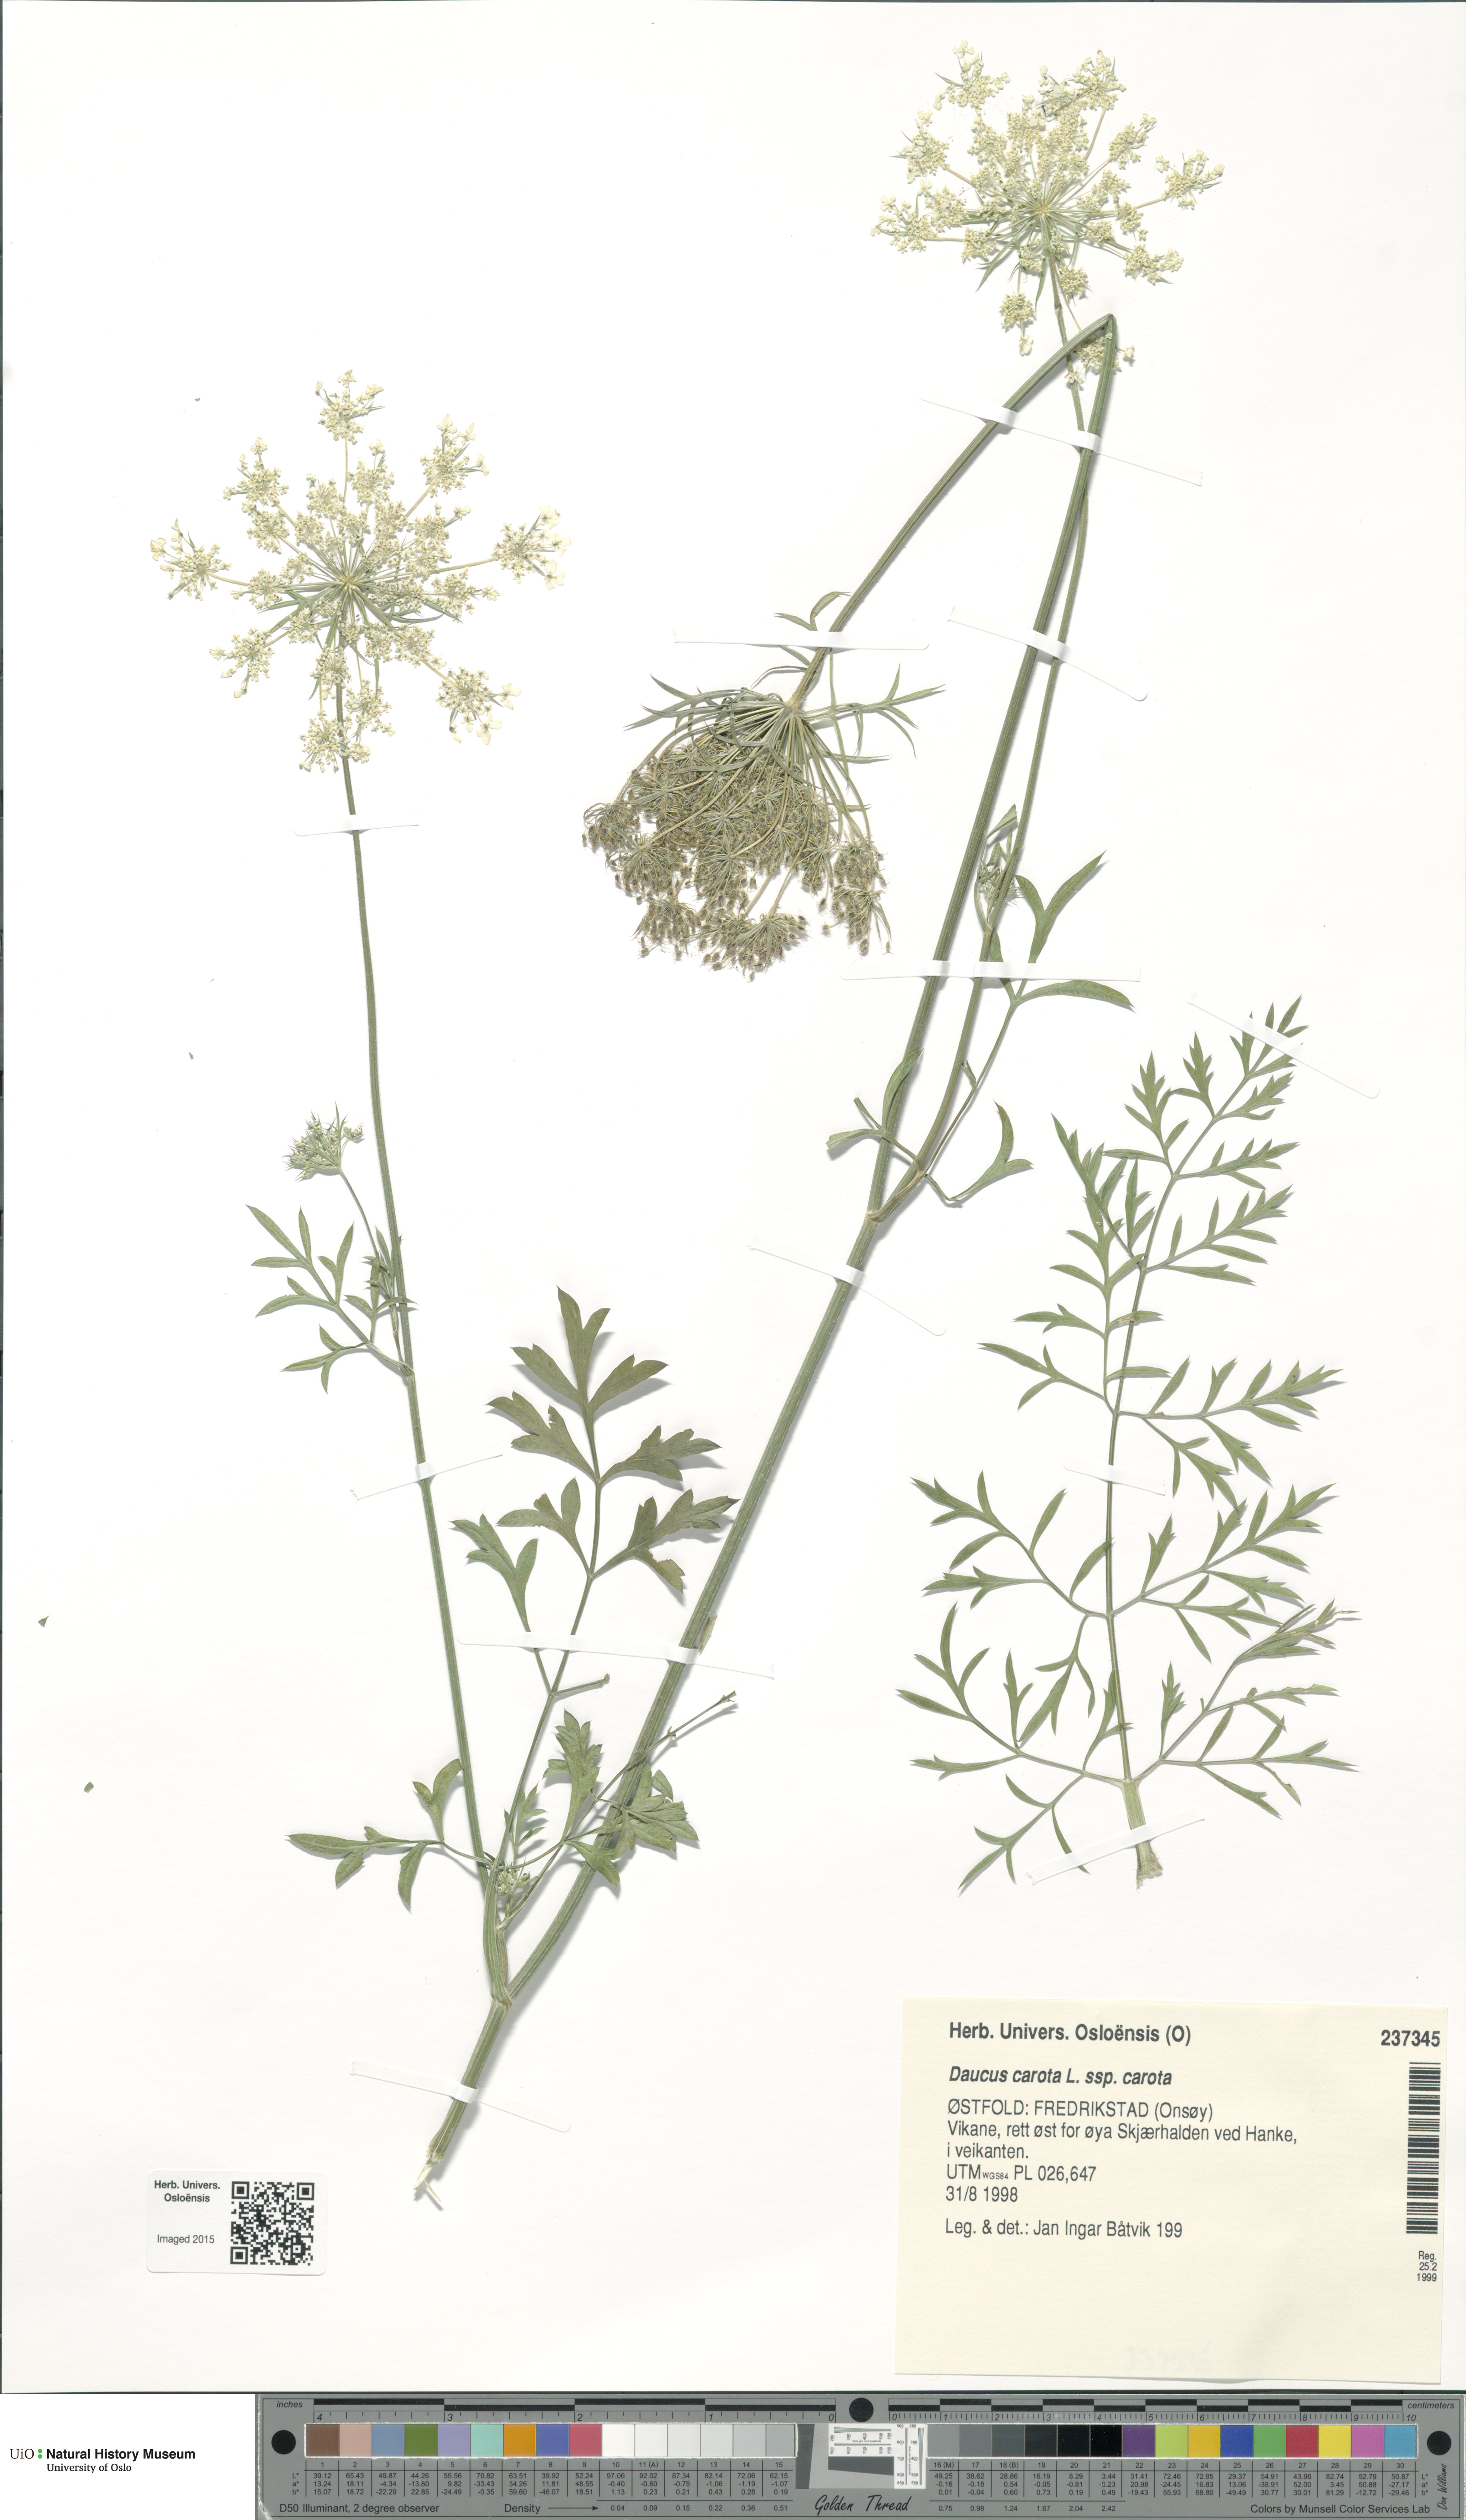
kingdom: Plantae
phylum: Tracheophyta
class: Magnoliopsida
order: Apiales
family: Apiaceae
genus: Daucus
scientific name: Daucus carota
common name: Wild carrot
